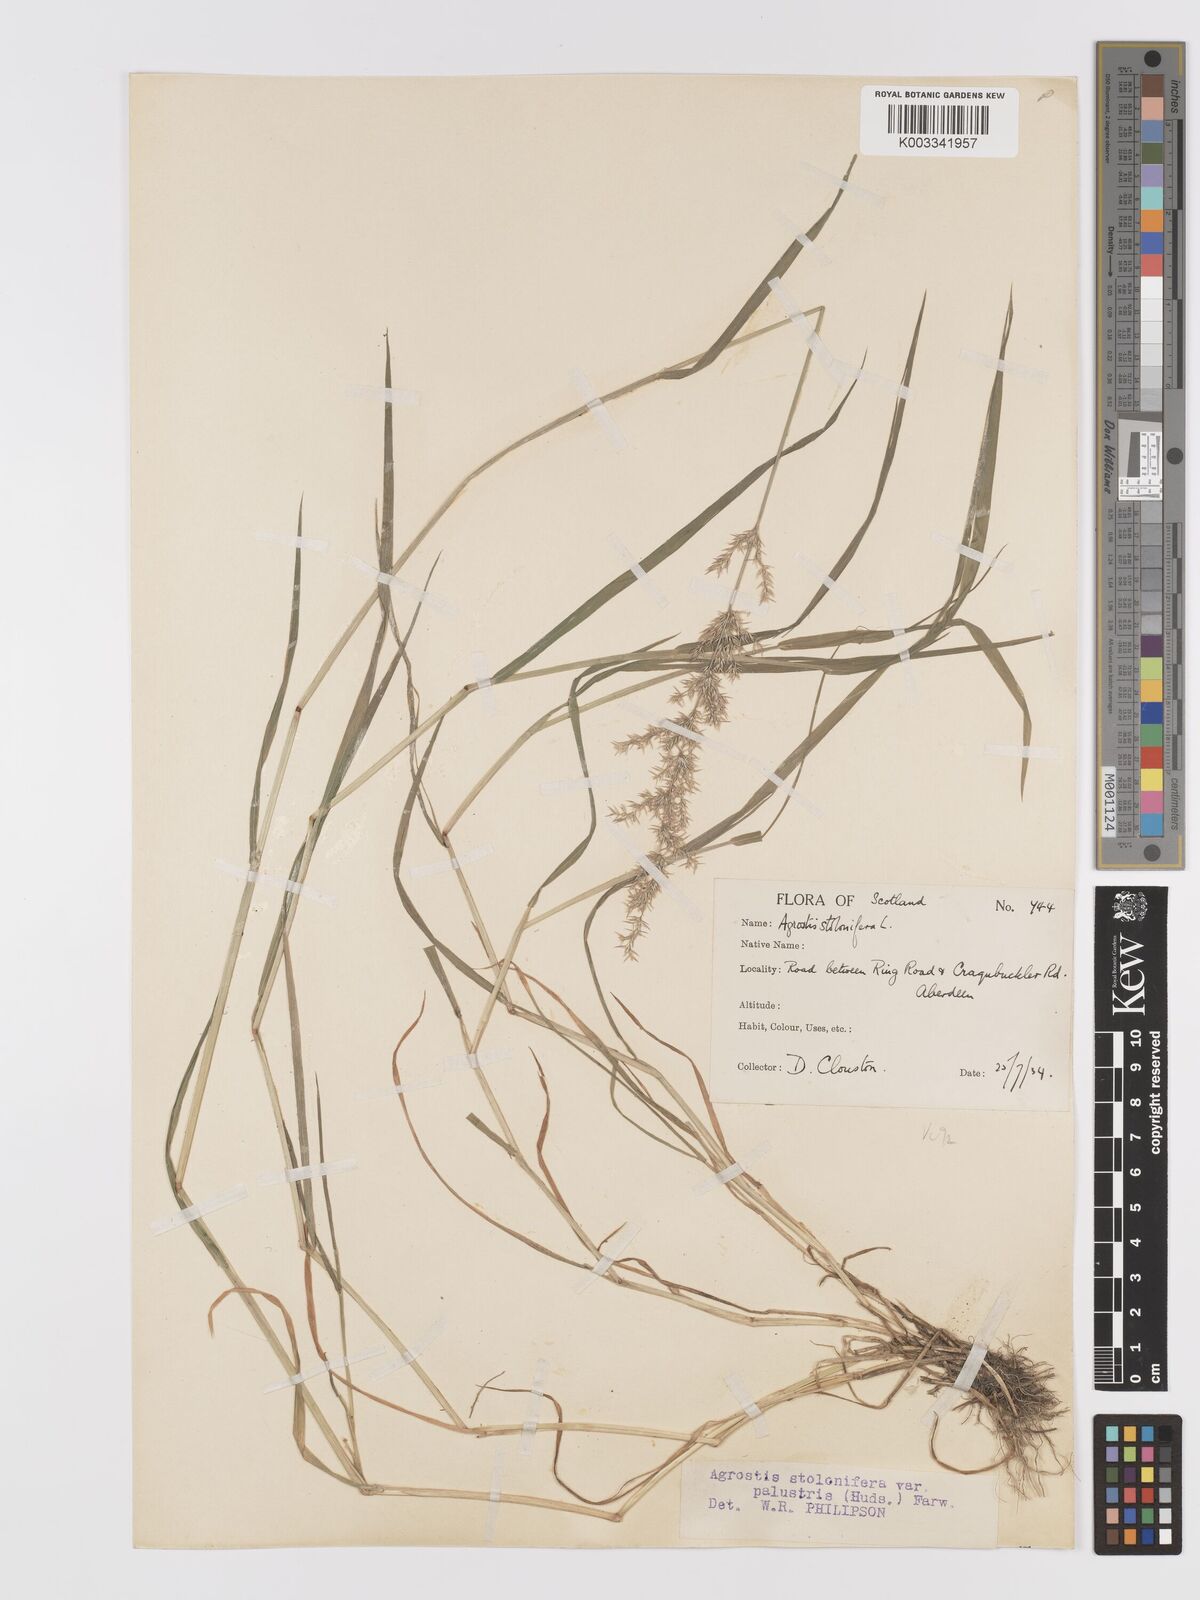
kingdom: Plantae
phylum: Tracheophyta
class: Liliopsida
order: Poales
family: Poaceae
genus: Agrostis
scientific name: Agrostis stolonifera
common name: Creeping bentgrass
